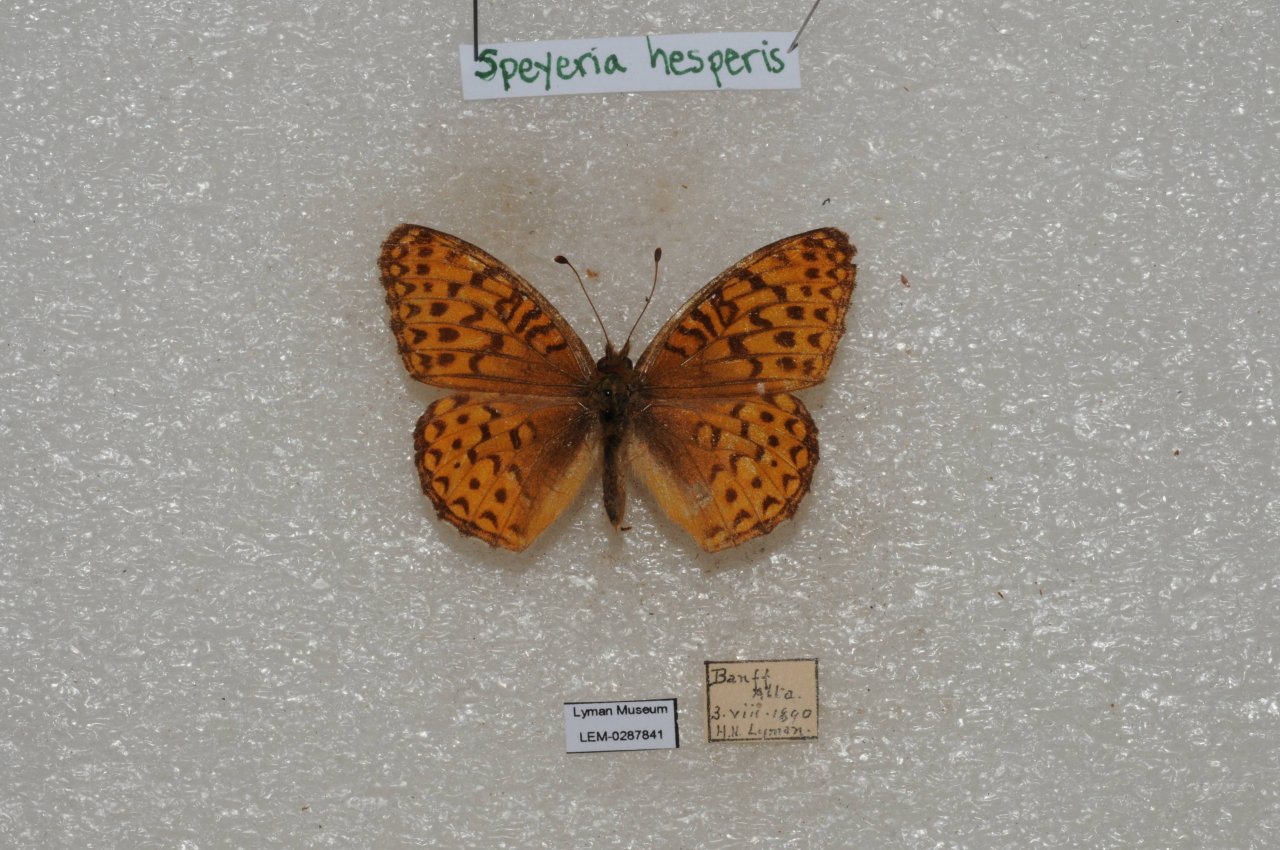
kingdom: Animalia
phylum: Arthropoda
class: Insecta
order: Lepidoptera
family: Nymphalidae
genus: Speyeria
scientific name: Speyeria atlantis
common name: Northwestern Fritillary
